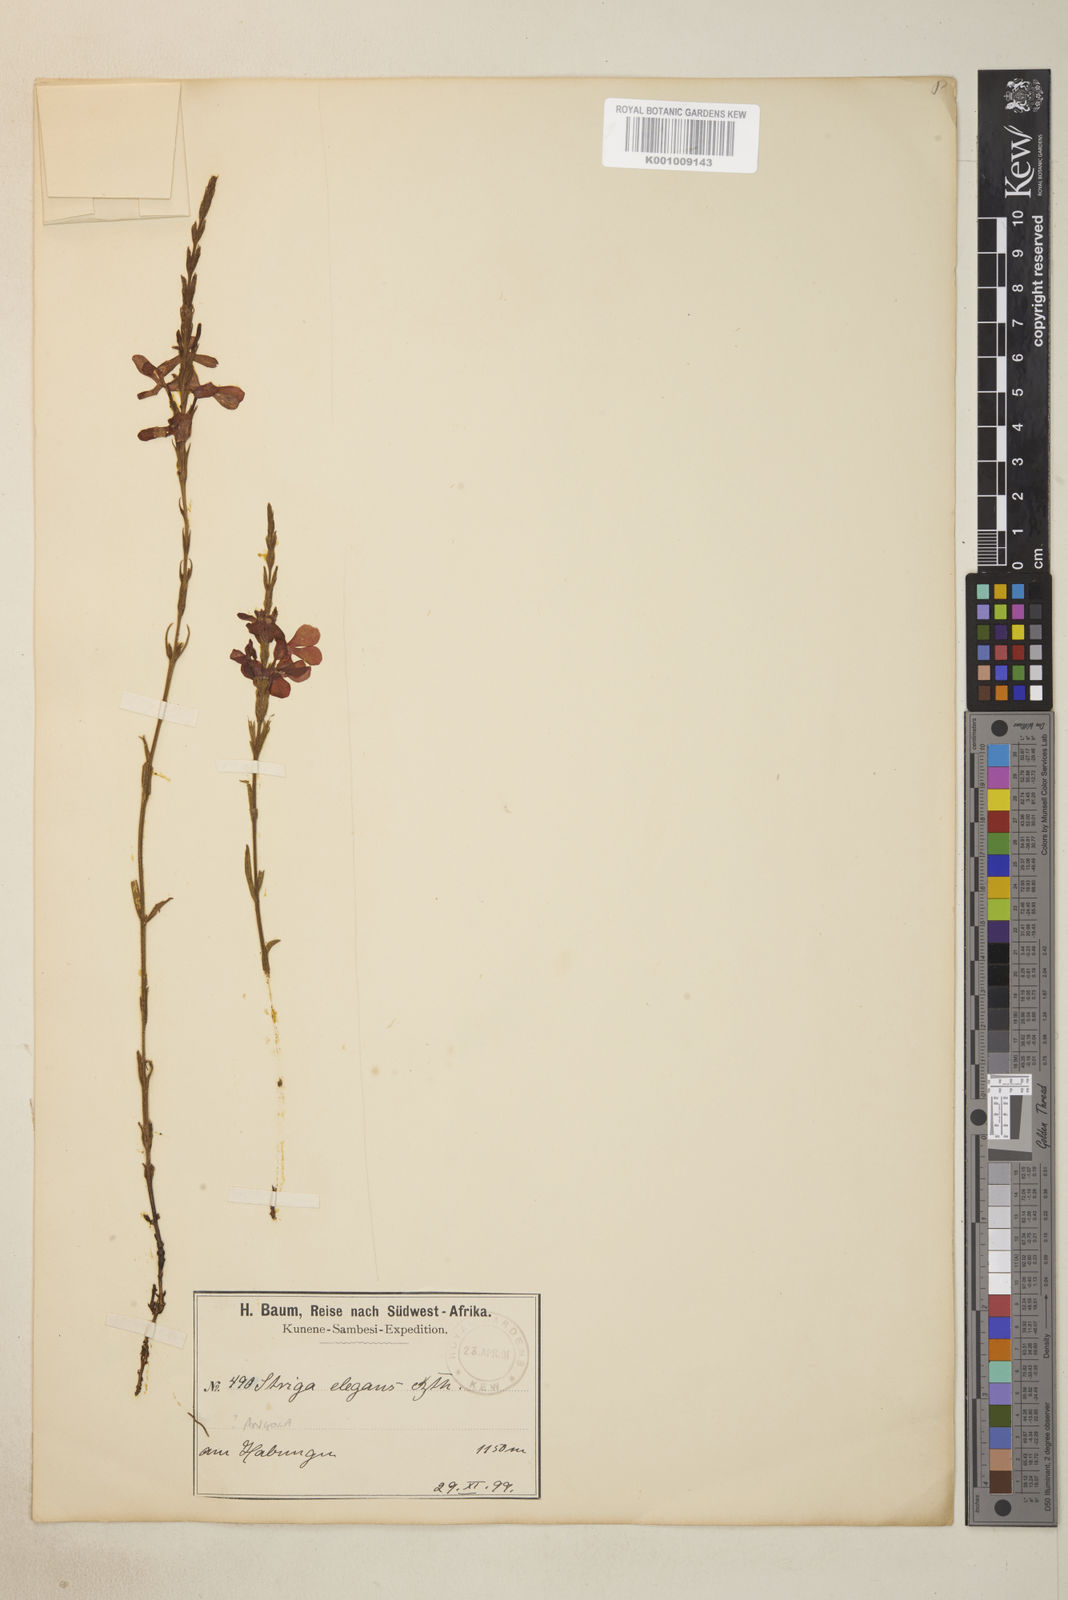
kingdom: Plantae
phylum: Tracheophyta
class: Magnoliopsida
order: Lamiales
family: Orobanchaceae
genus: Striga
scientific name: Striga elegans
